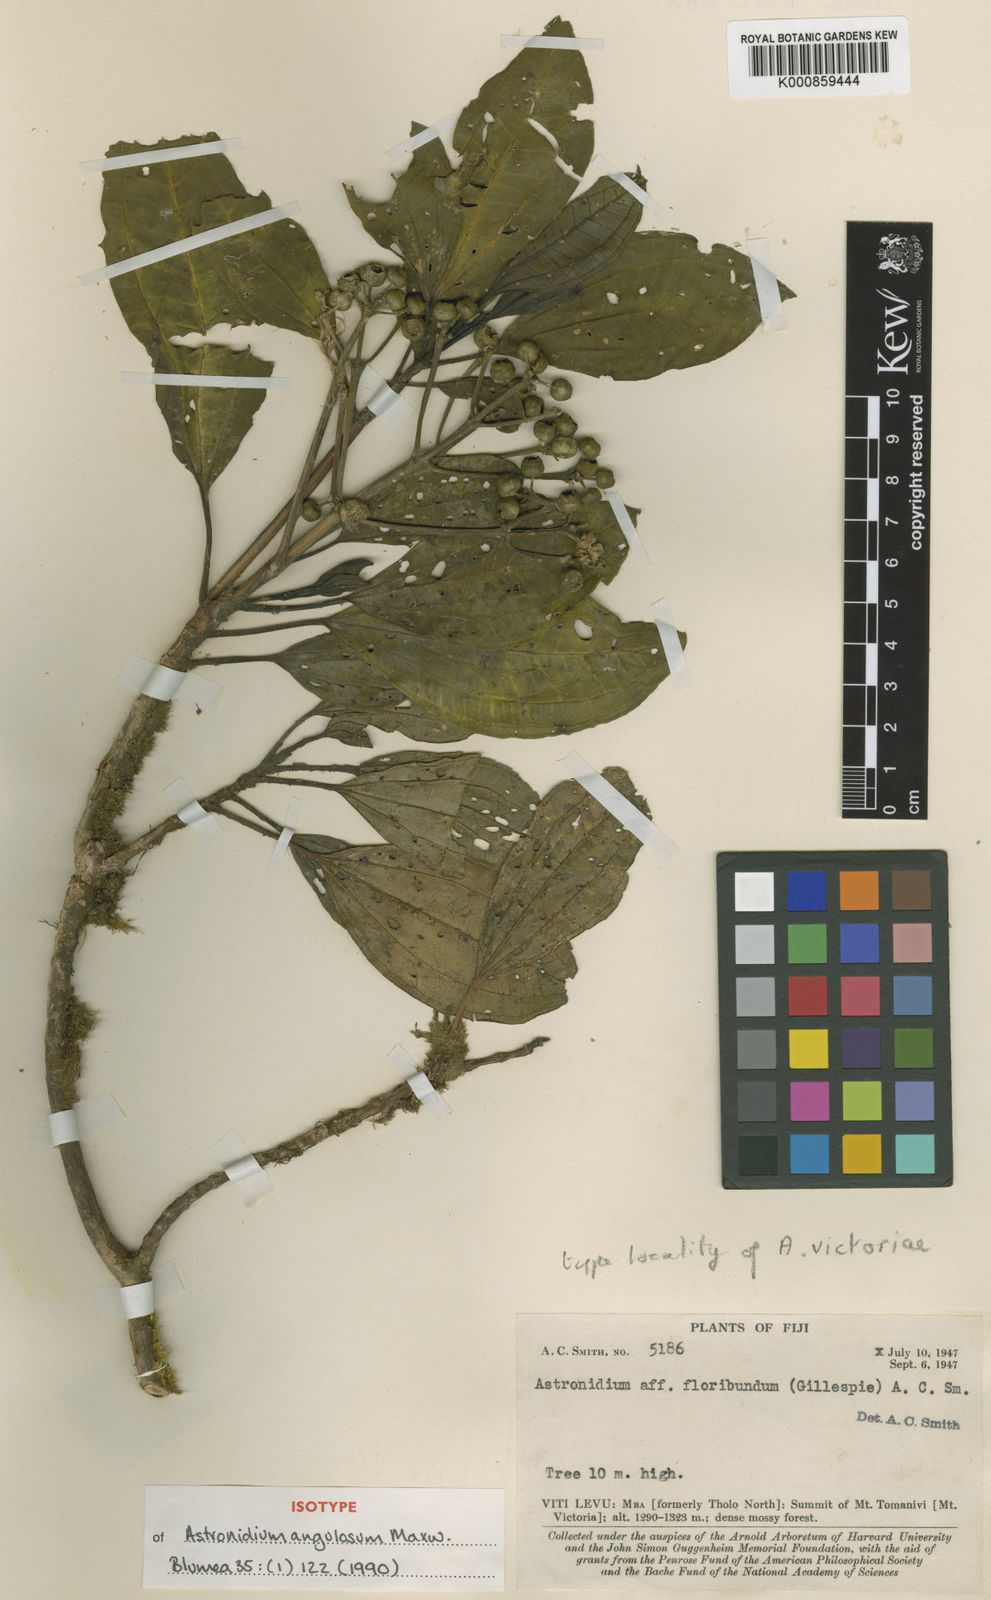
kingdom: Plantae
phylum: Tracheophyta
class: Magnoliopsida
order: Myrtales
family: Melastomataceae
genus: Astronidium
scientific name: Astronidium angulosum
